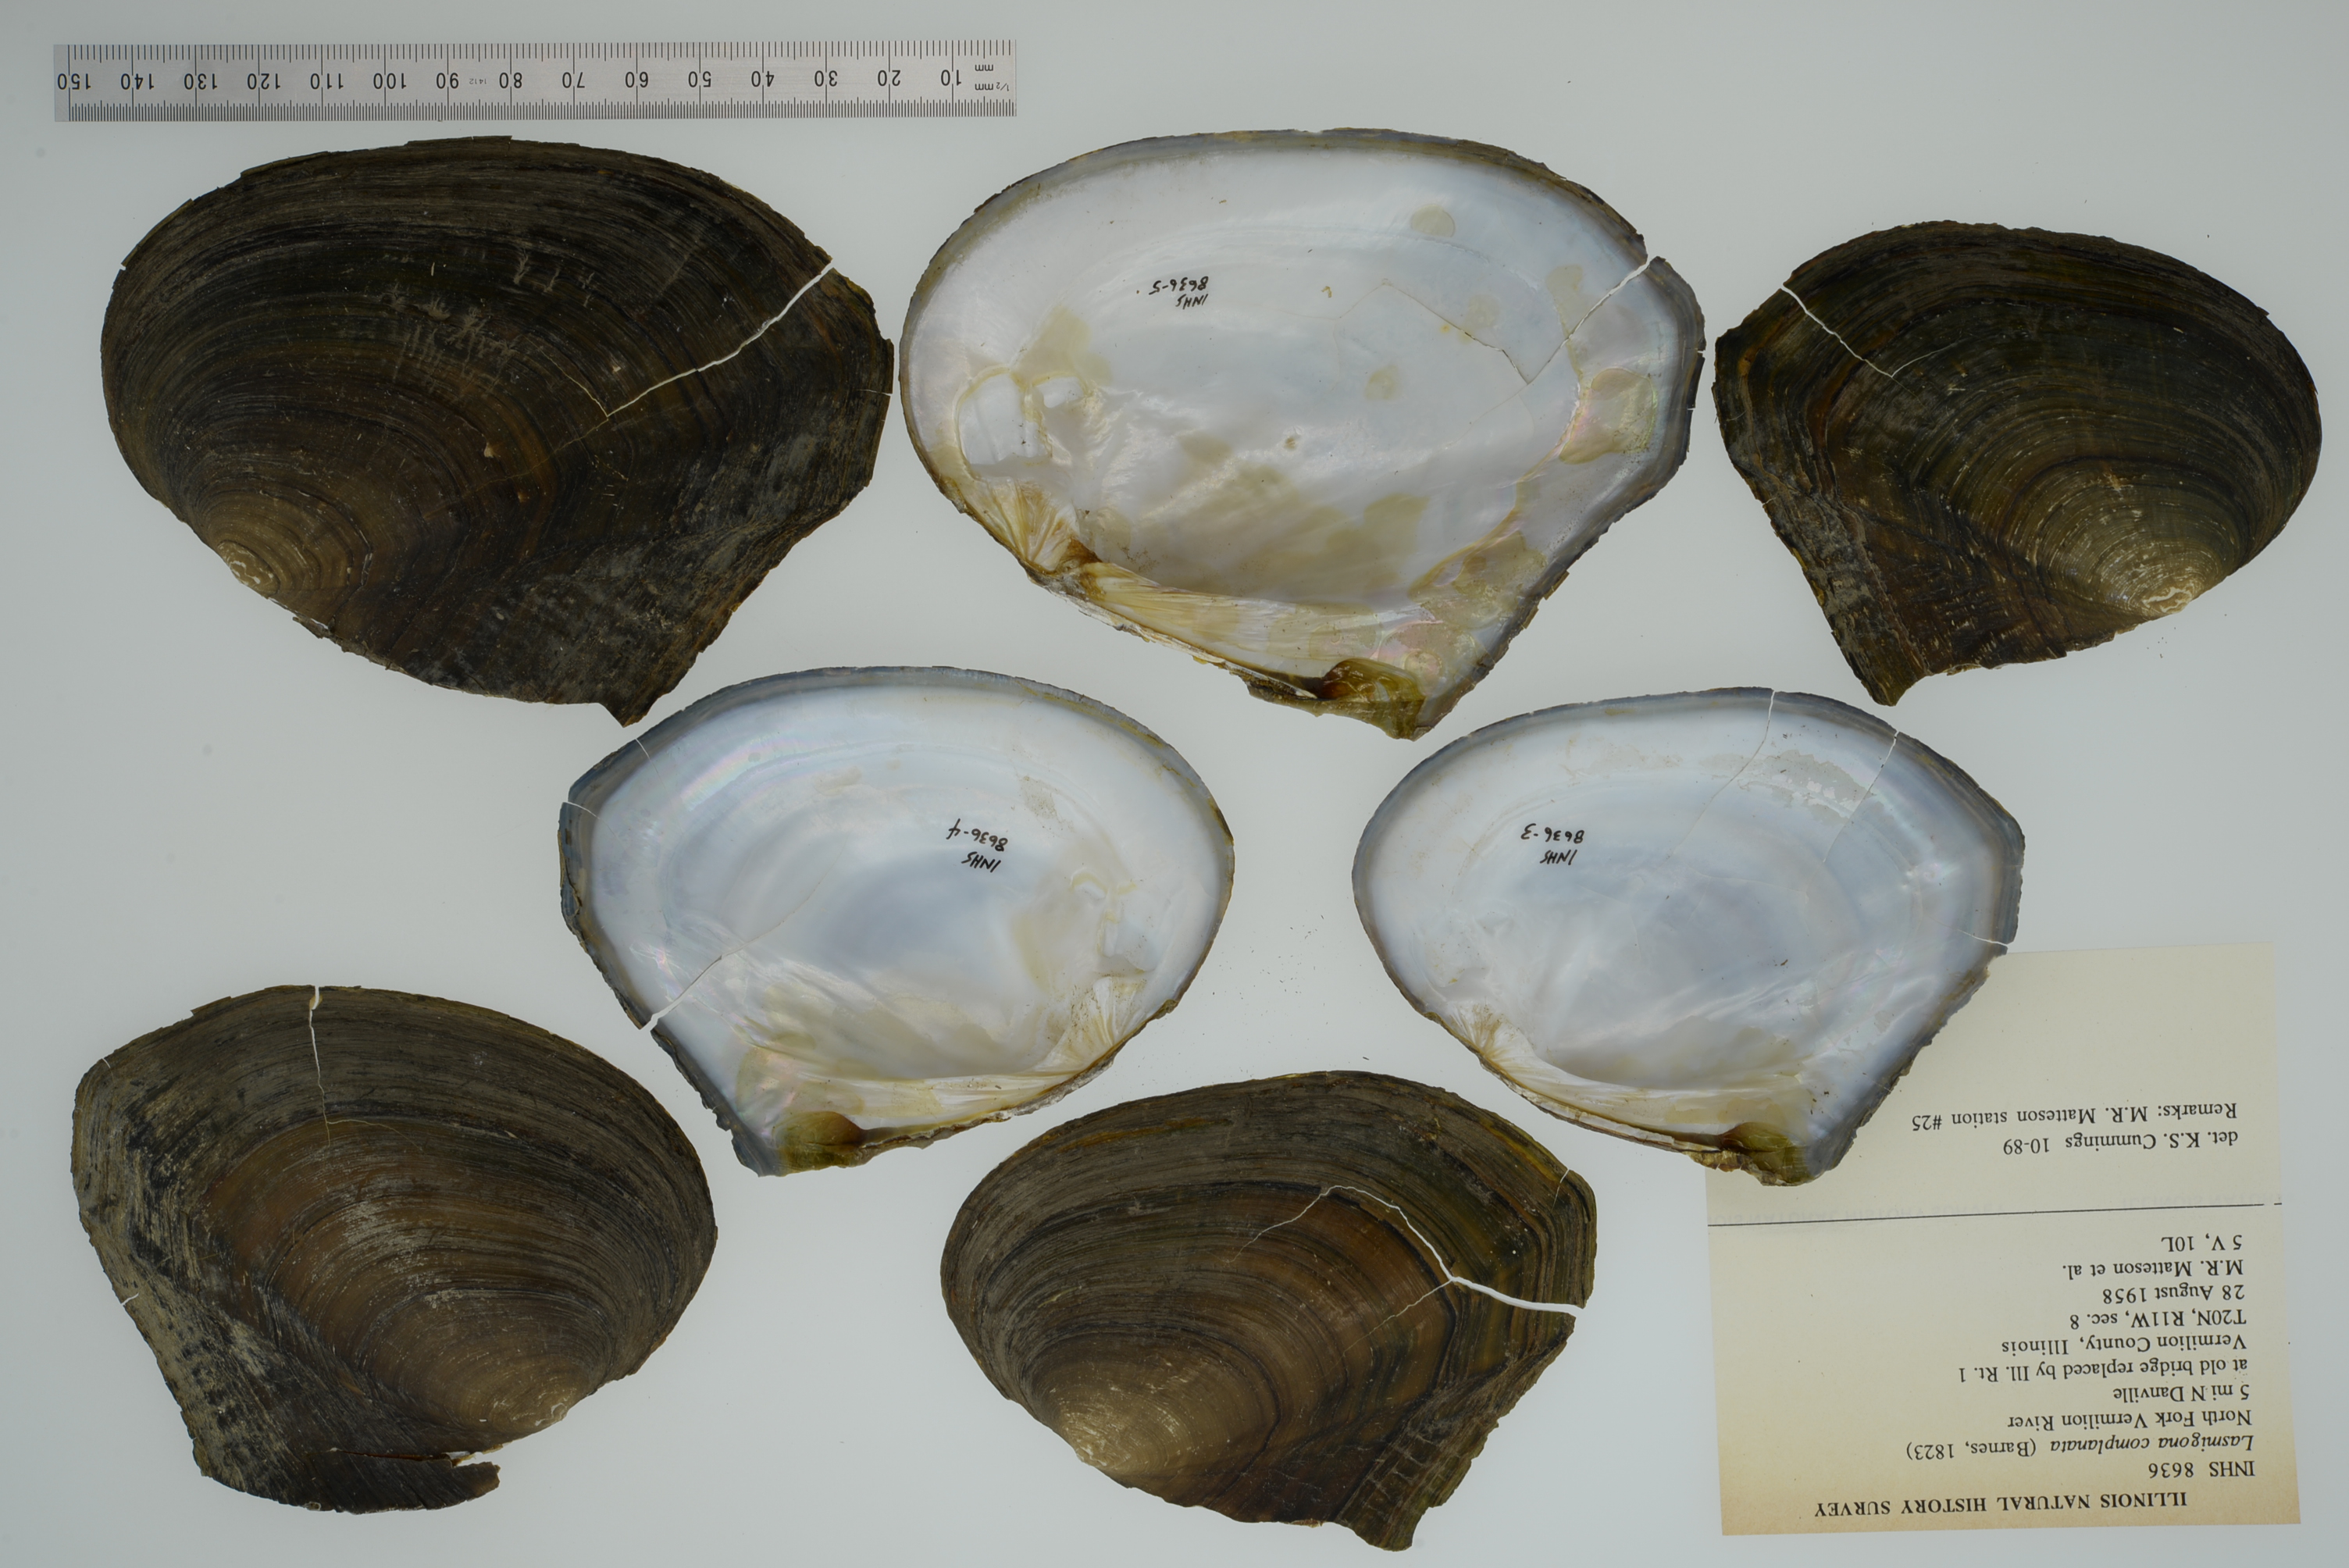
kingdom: Animalia
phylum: Mollusca
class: Bivalvia
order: Unionida
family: Unionidae
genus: Lasmigona
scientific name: Lasmigona complanata
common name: White heelsplitter
